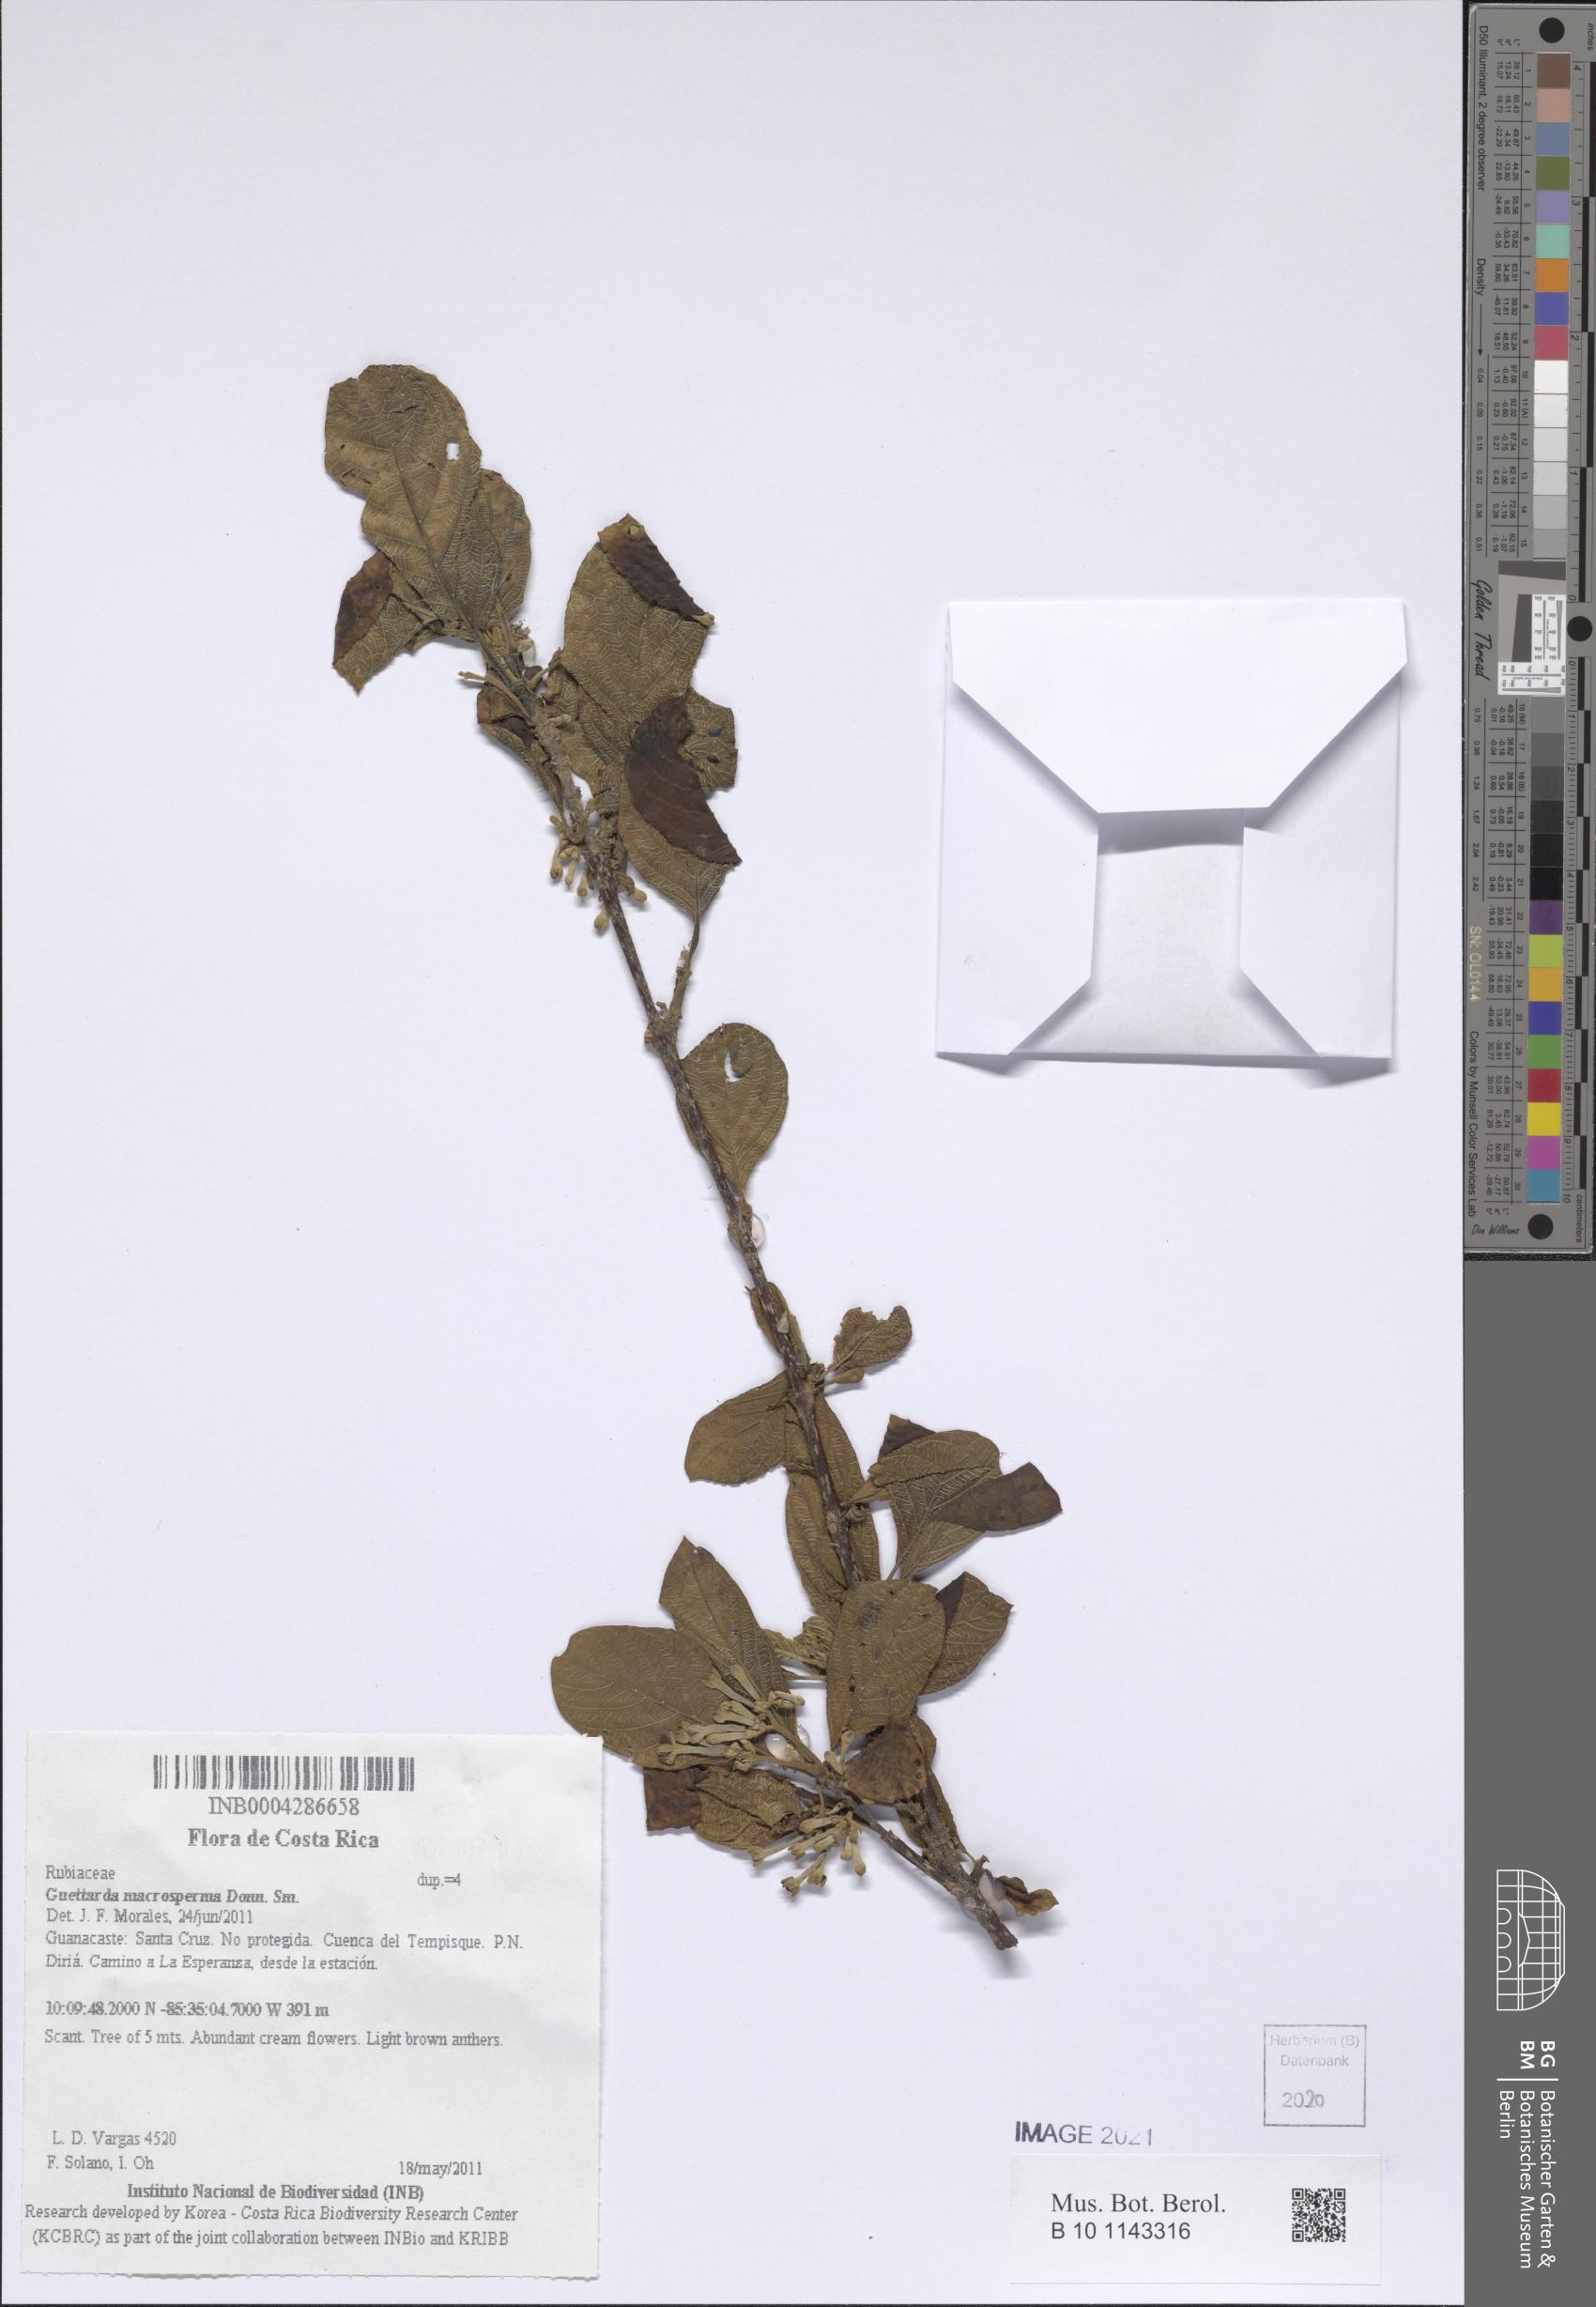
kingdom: Plantae
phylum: Tracheophyta
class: Magnoliopsida
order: Gentianales
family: Rubiaceae
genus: Guettarda
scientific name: Guettarda macrosperma
